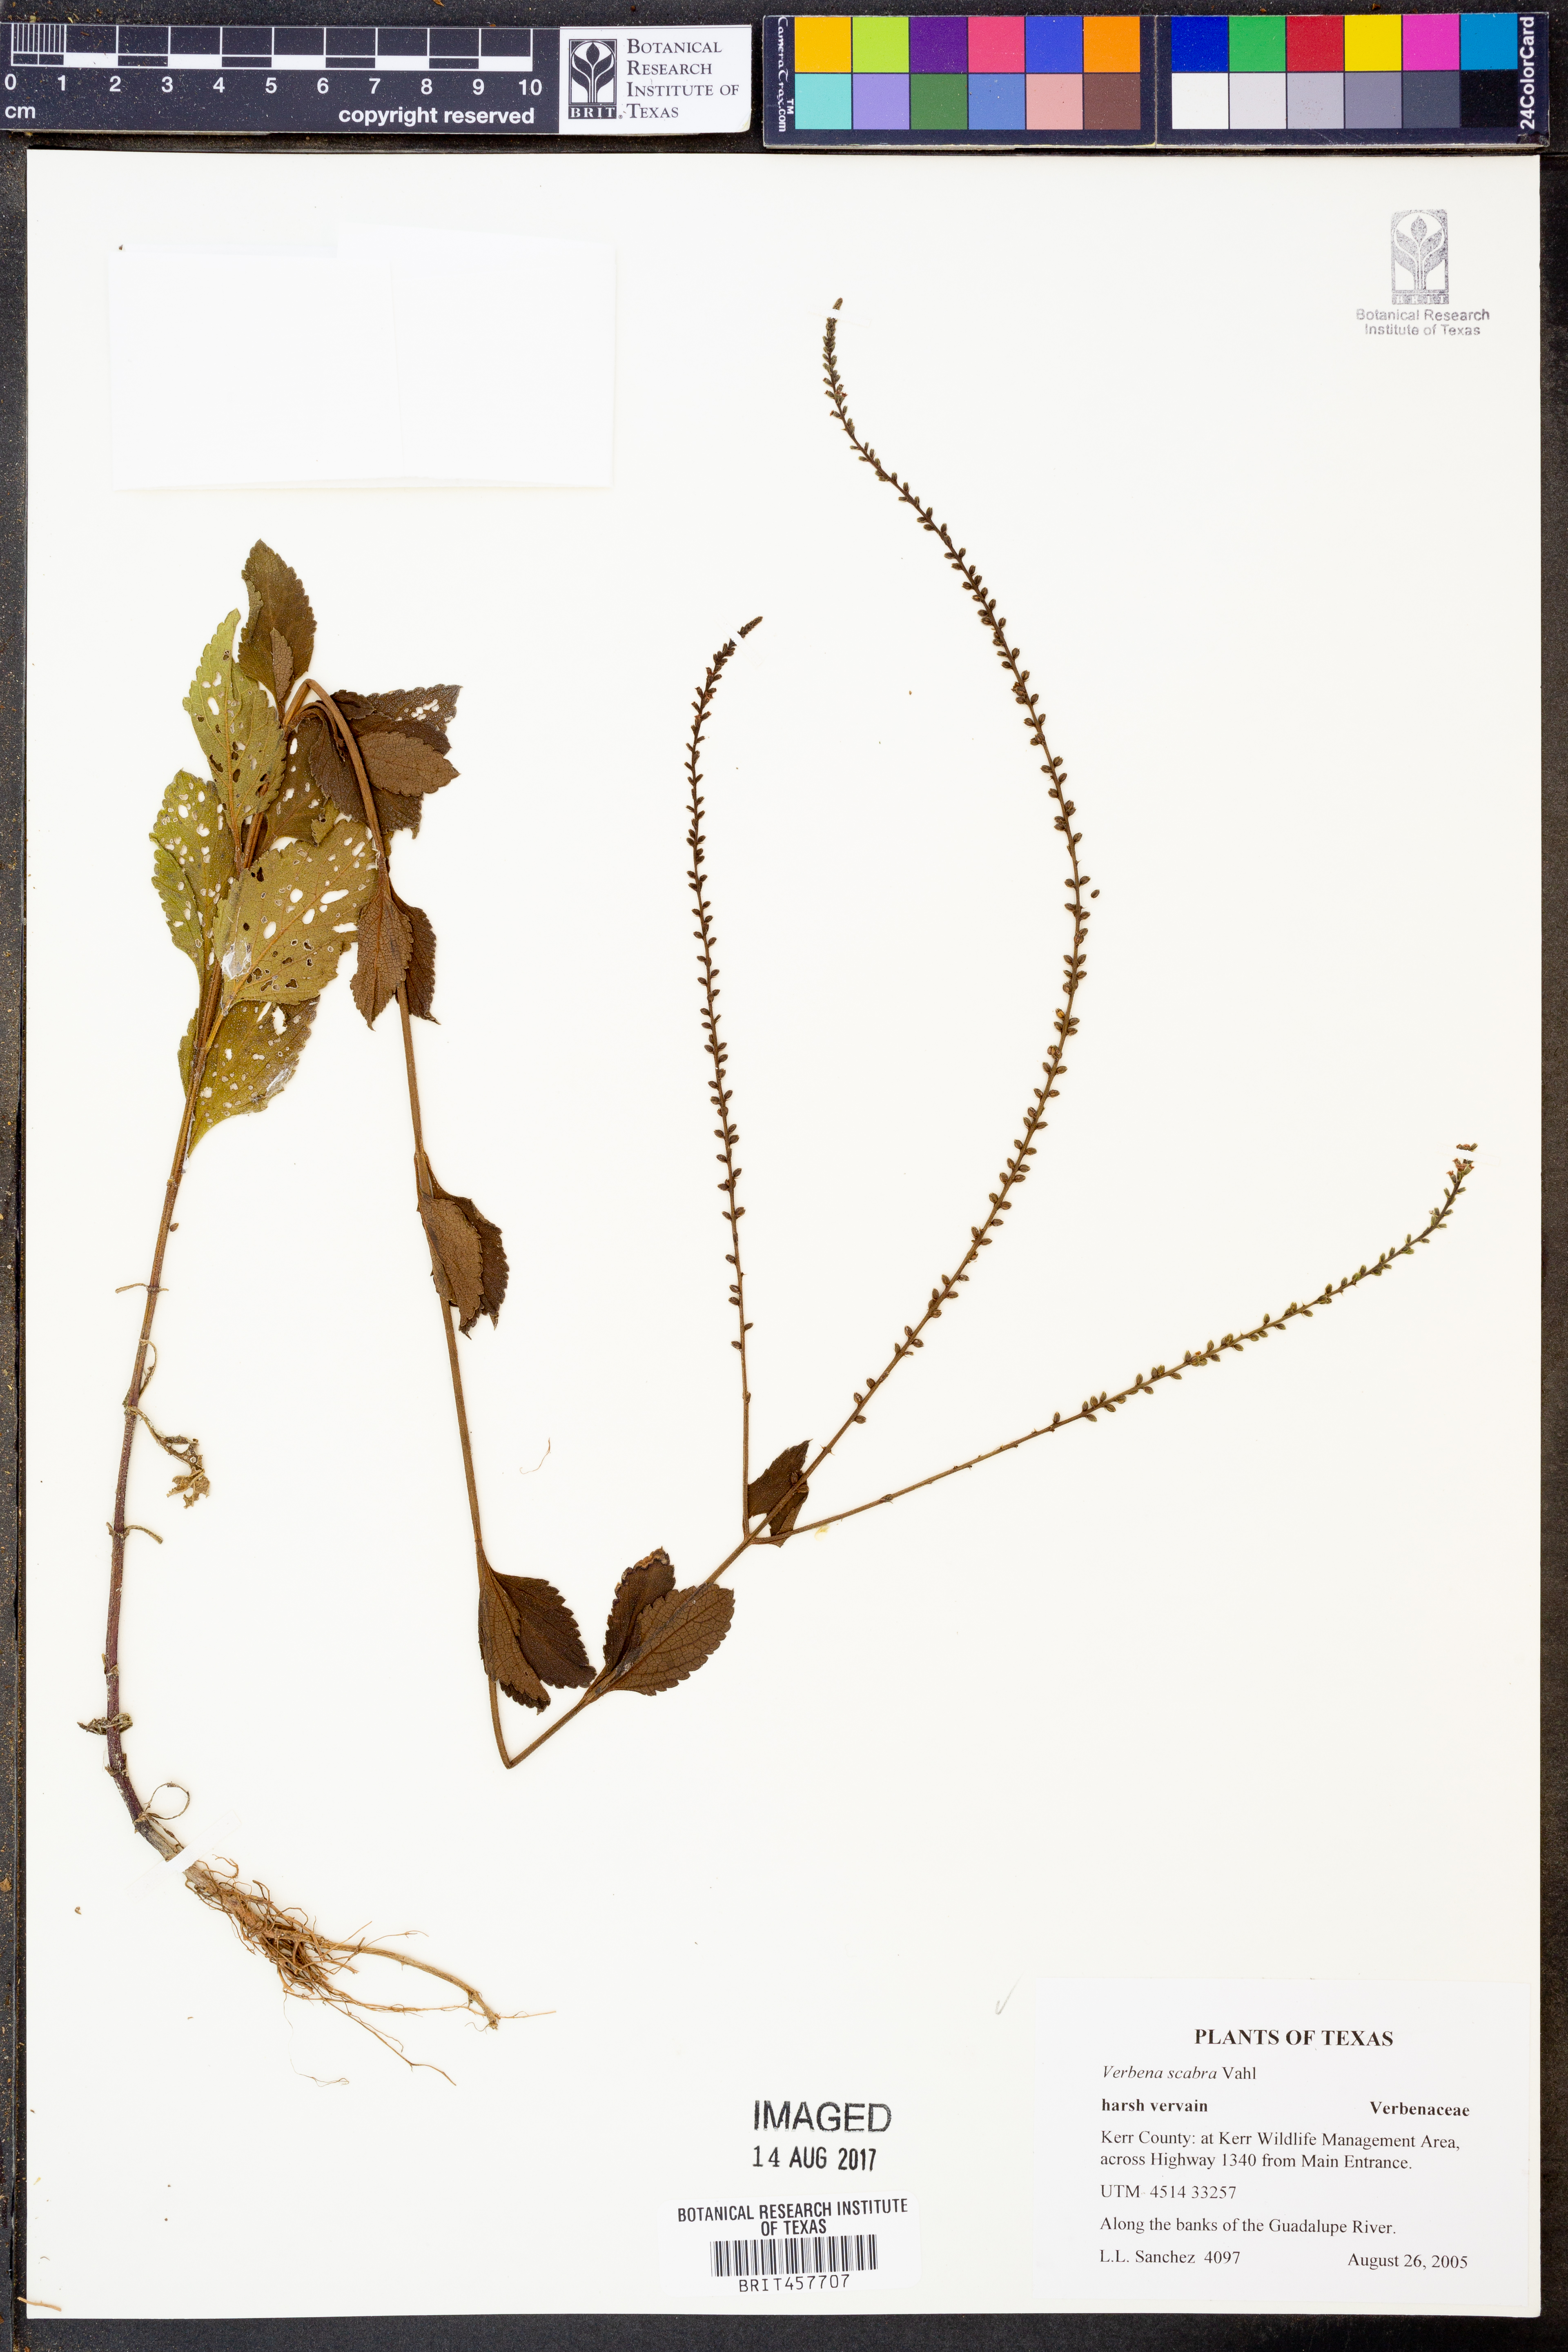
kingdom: Plantae
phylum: Tracheophyta
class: Magnoliopsida
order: Lamiales
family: Verbenaceae
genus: Verbena
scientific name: Verbena scabra
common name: Sandpaper vervain
